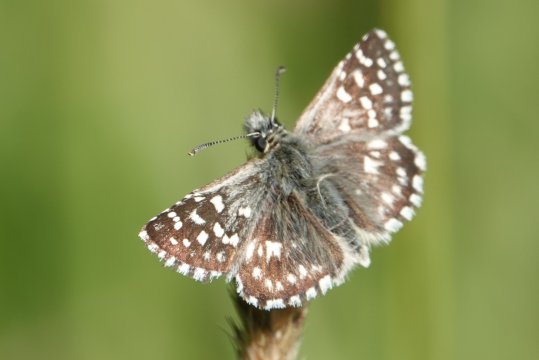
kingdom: Animalia
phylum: Arthropoda
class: Insecta
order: Lepidoptera
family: Hesperiidae
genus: Pyrgus
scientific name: Pyrgus malvae
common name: Grizzled Skipper
